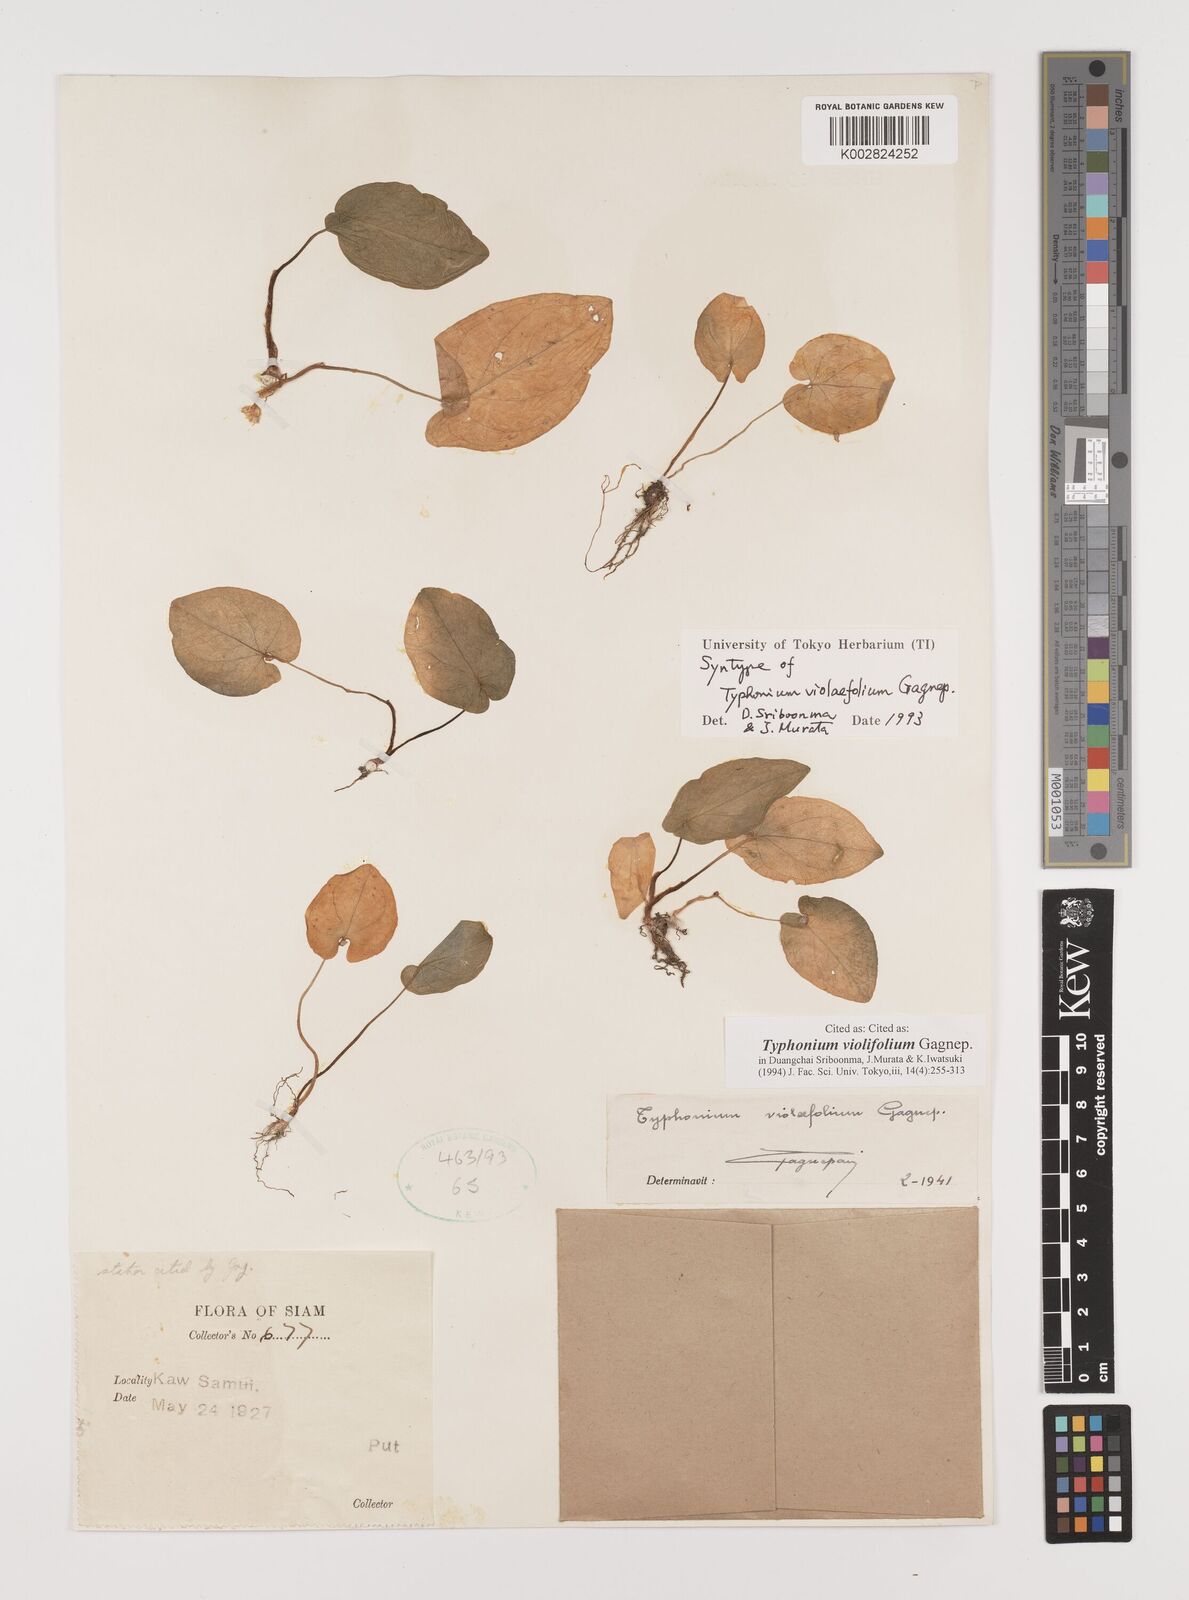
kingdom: Plantae
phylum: Tracheophyta
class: Liliopsida
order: Alismatales
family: Araceae
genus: Typhonium
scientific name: Typhonium violifolium
